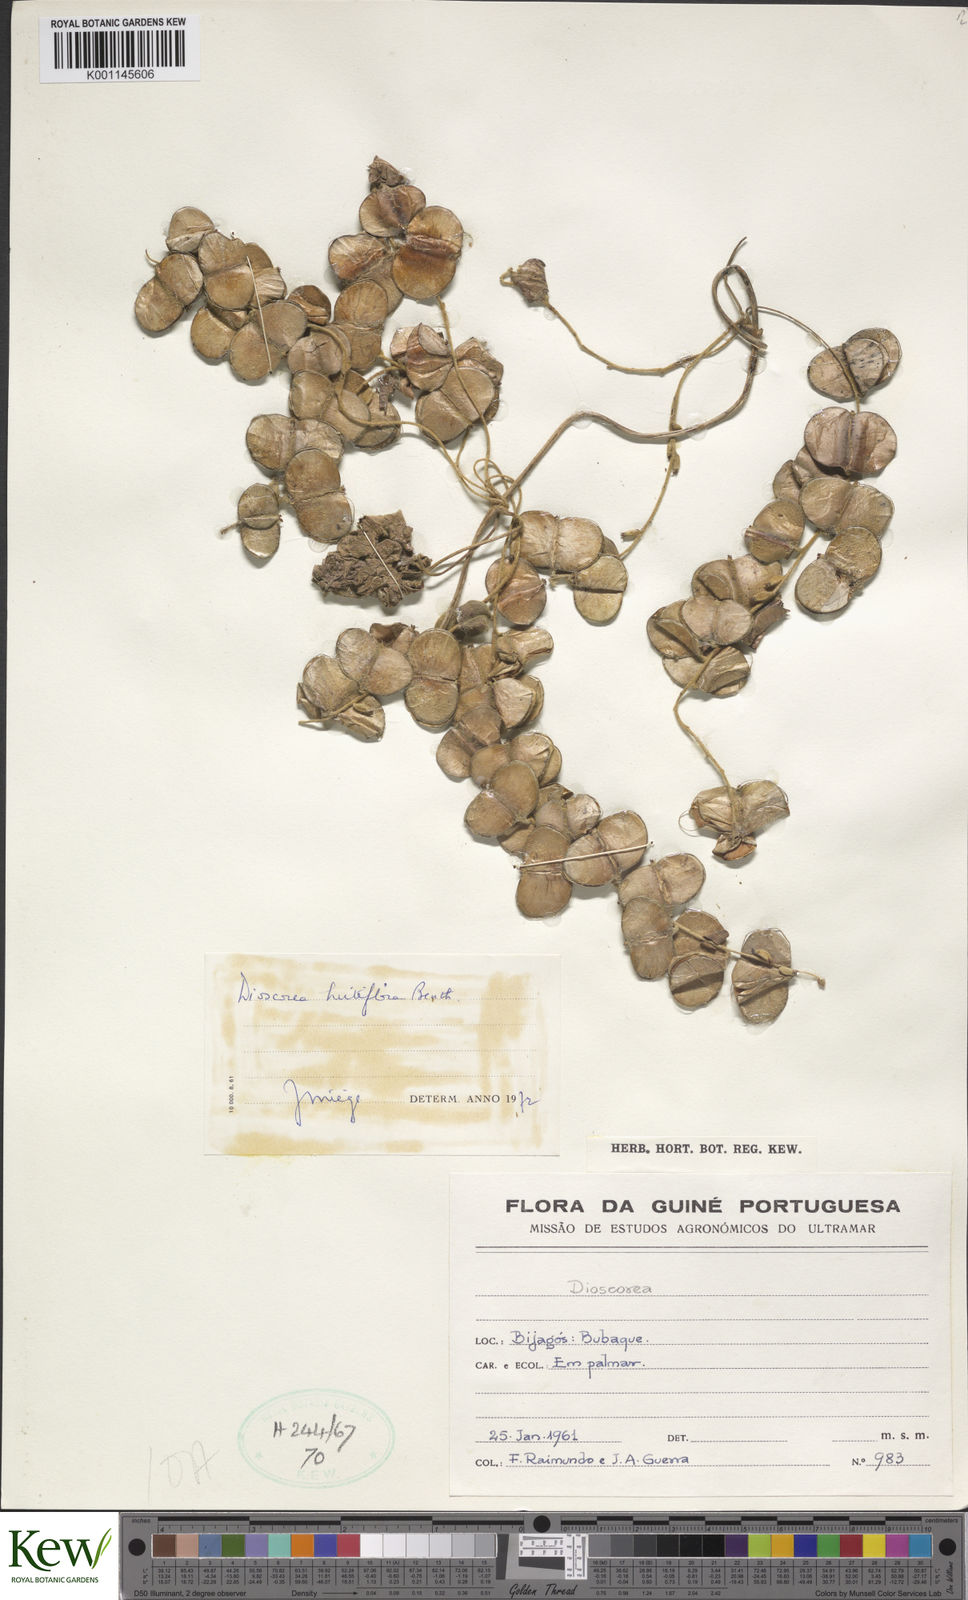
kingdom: Plantae
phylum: Tracheophyta
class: Liliopsida
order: Dioscoreales
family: Dioscoreaceae
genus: Dioscorea
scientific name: Dioscorea hirtiflora
